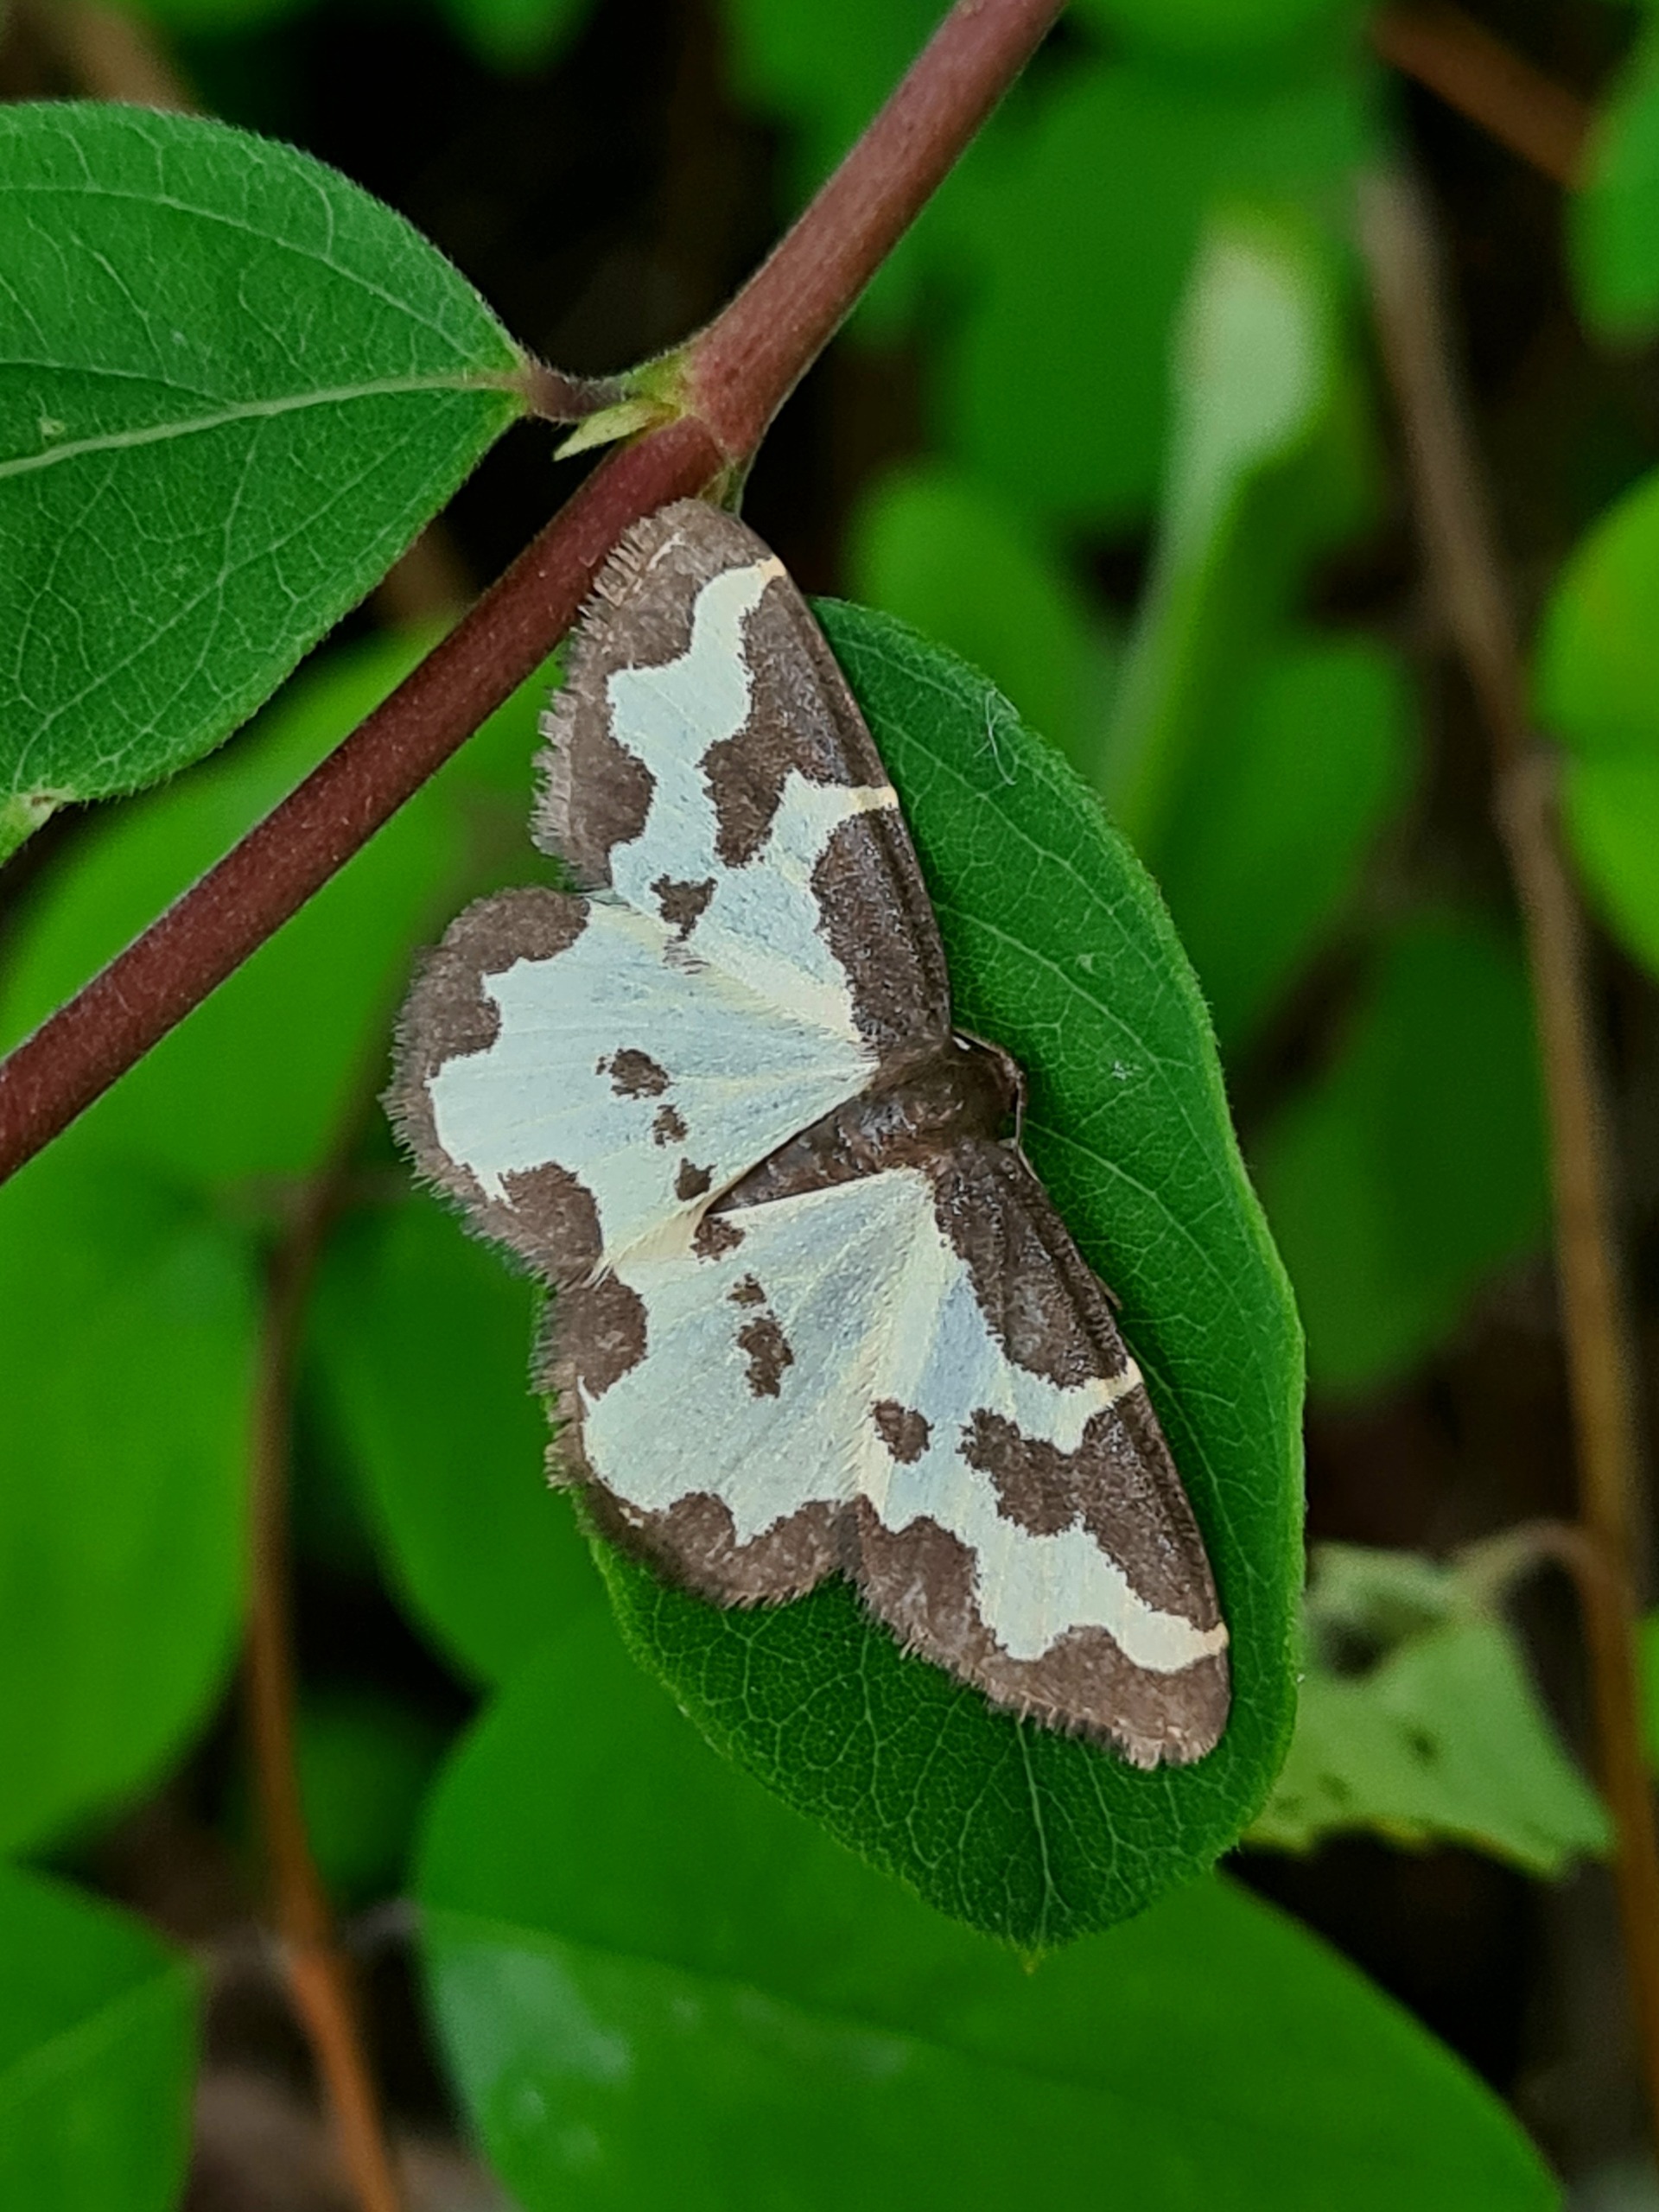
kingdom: Animalia
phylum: Arthropoda
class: Insecta
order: Lepidoptera
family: Geometridae
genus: Lomaspilis
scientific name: Lomaspilis marginata
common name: Sortrandet måler
